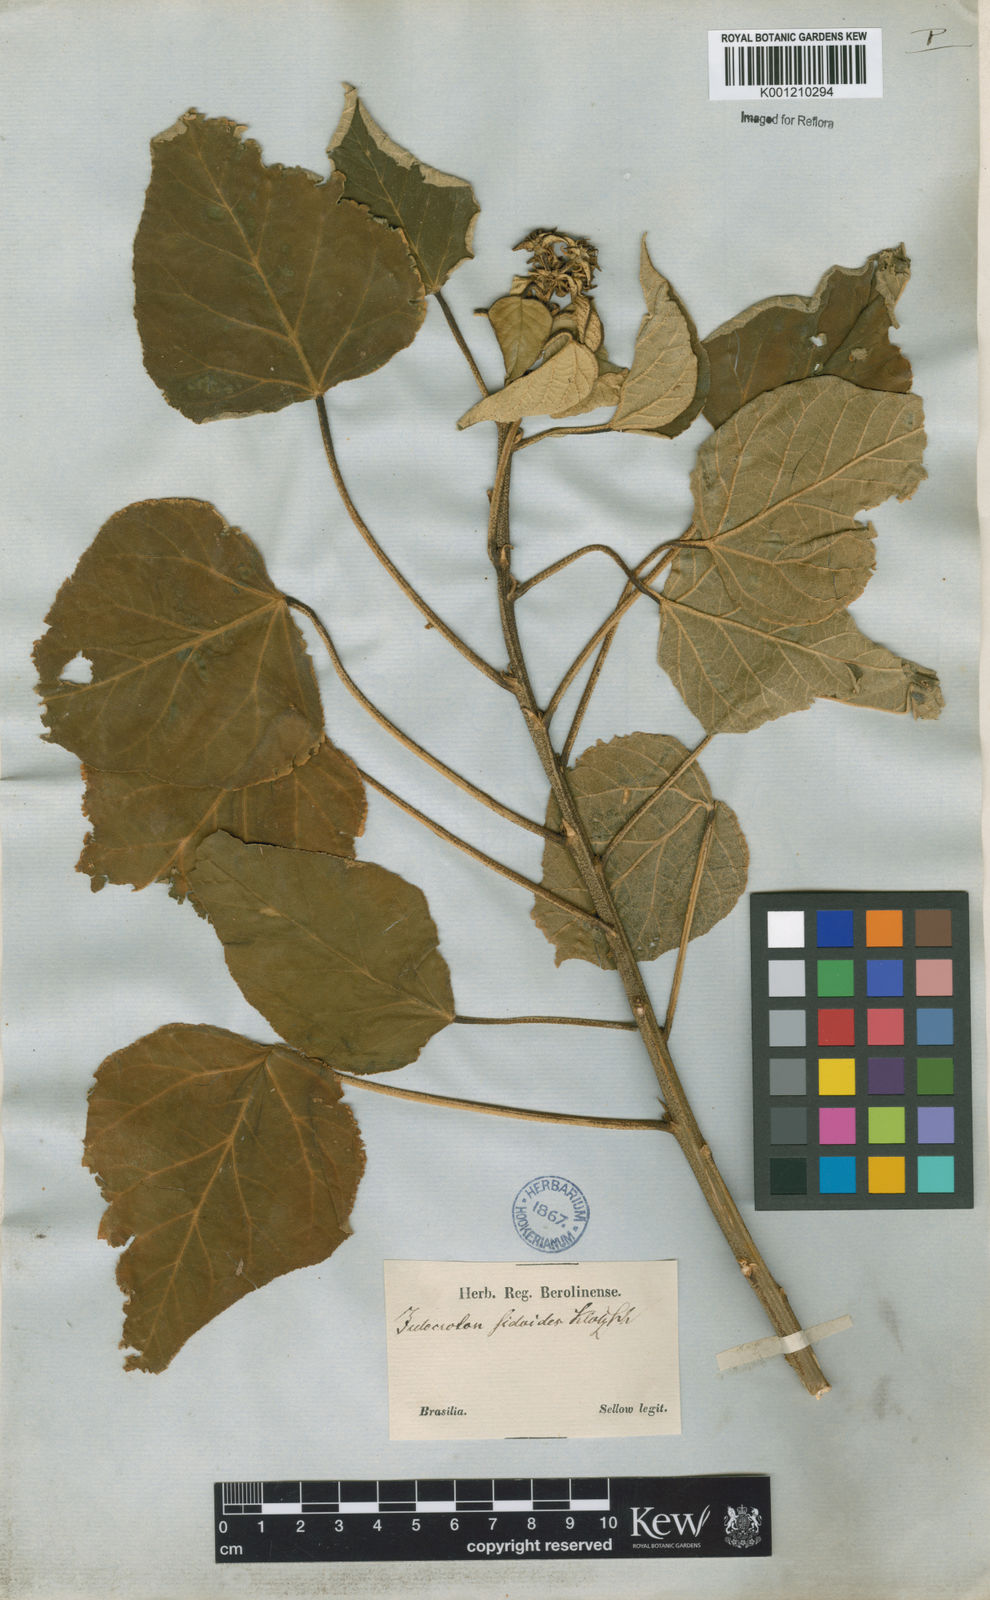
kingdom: Plantae
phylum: Tracheophyta
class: Magnoliopsida
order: Malpighiales
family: Euphorbiaceae
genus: Croton
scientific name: Croton triqueter
